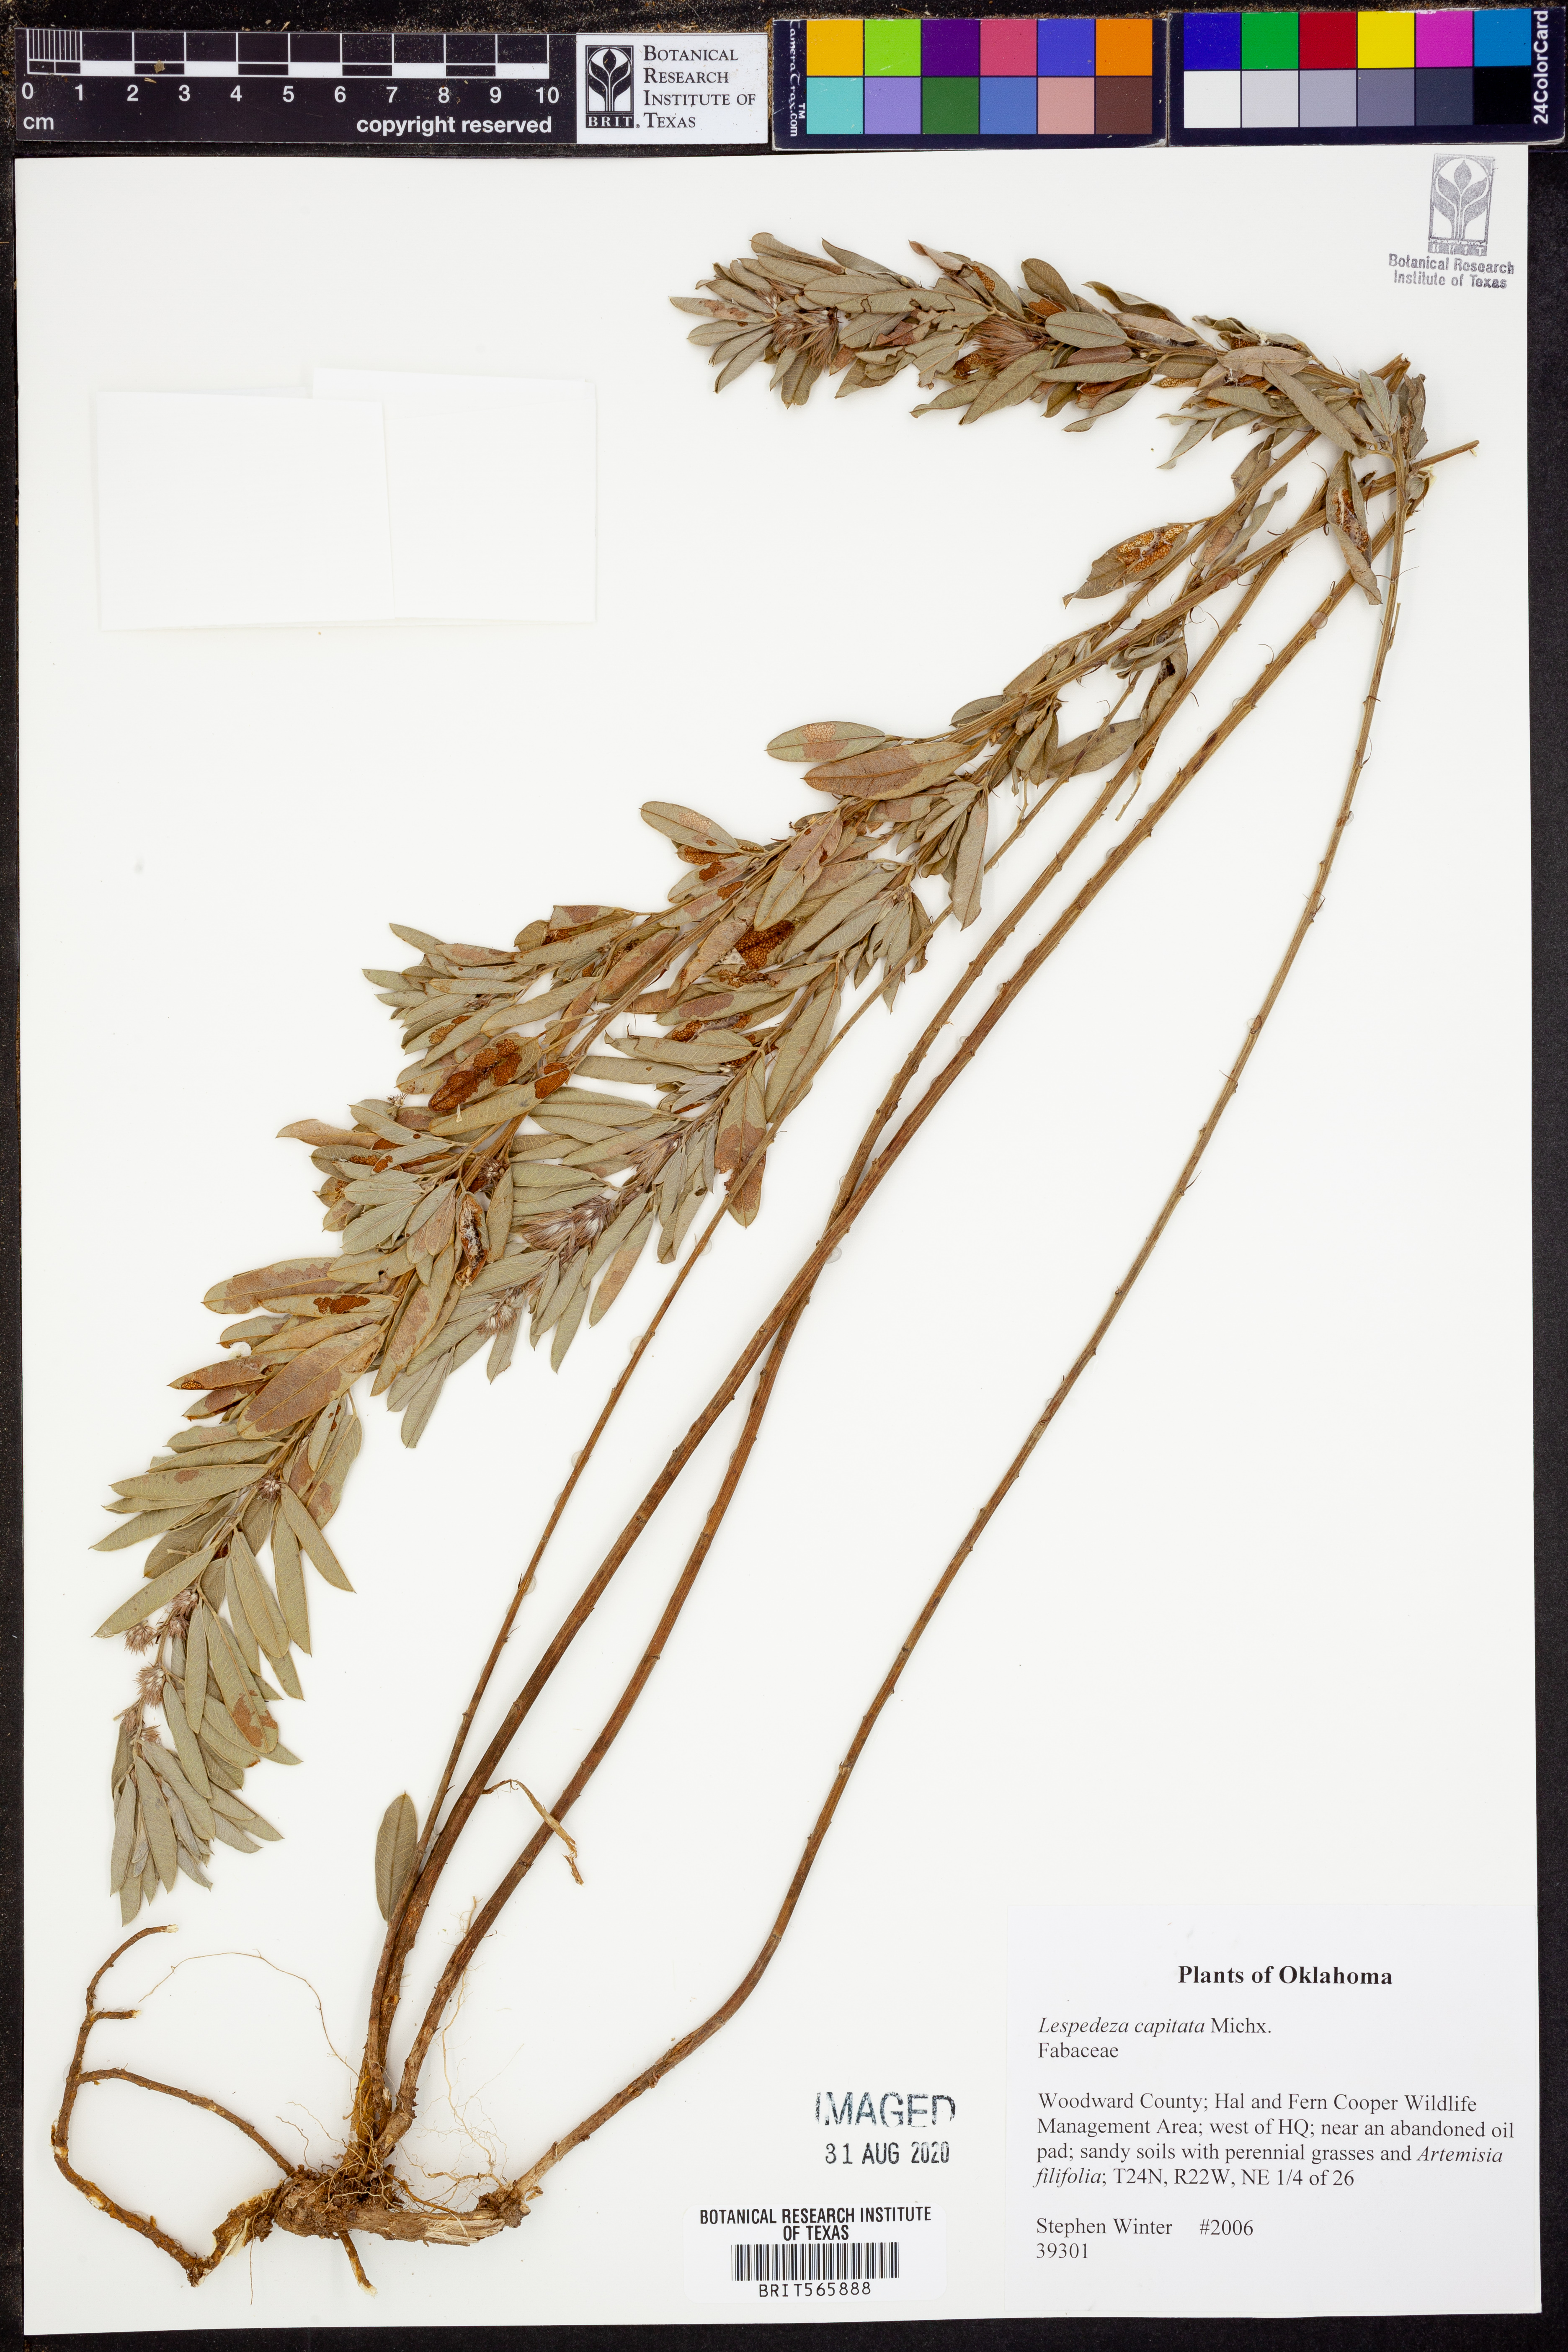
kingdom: Plantae
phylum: Tracheophyta
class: Magnoliopsida
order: Fabales
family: Fabaceae
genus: Lespedeza
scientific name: Lespedeza capitata
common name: Dusty clover
